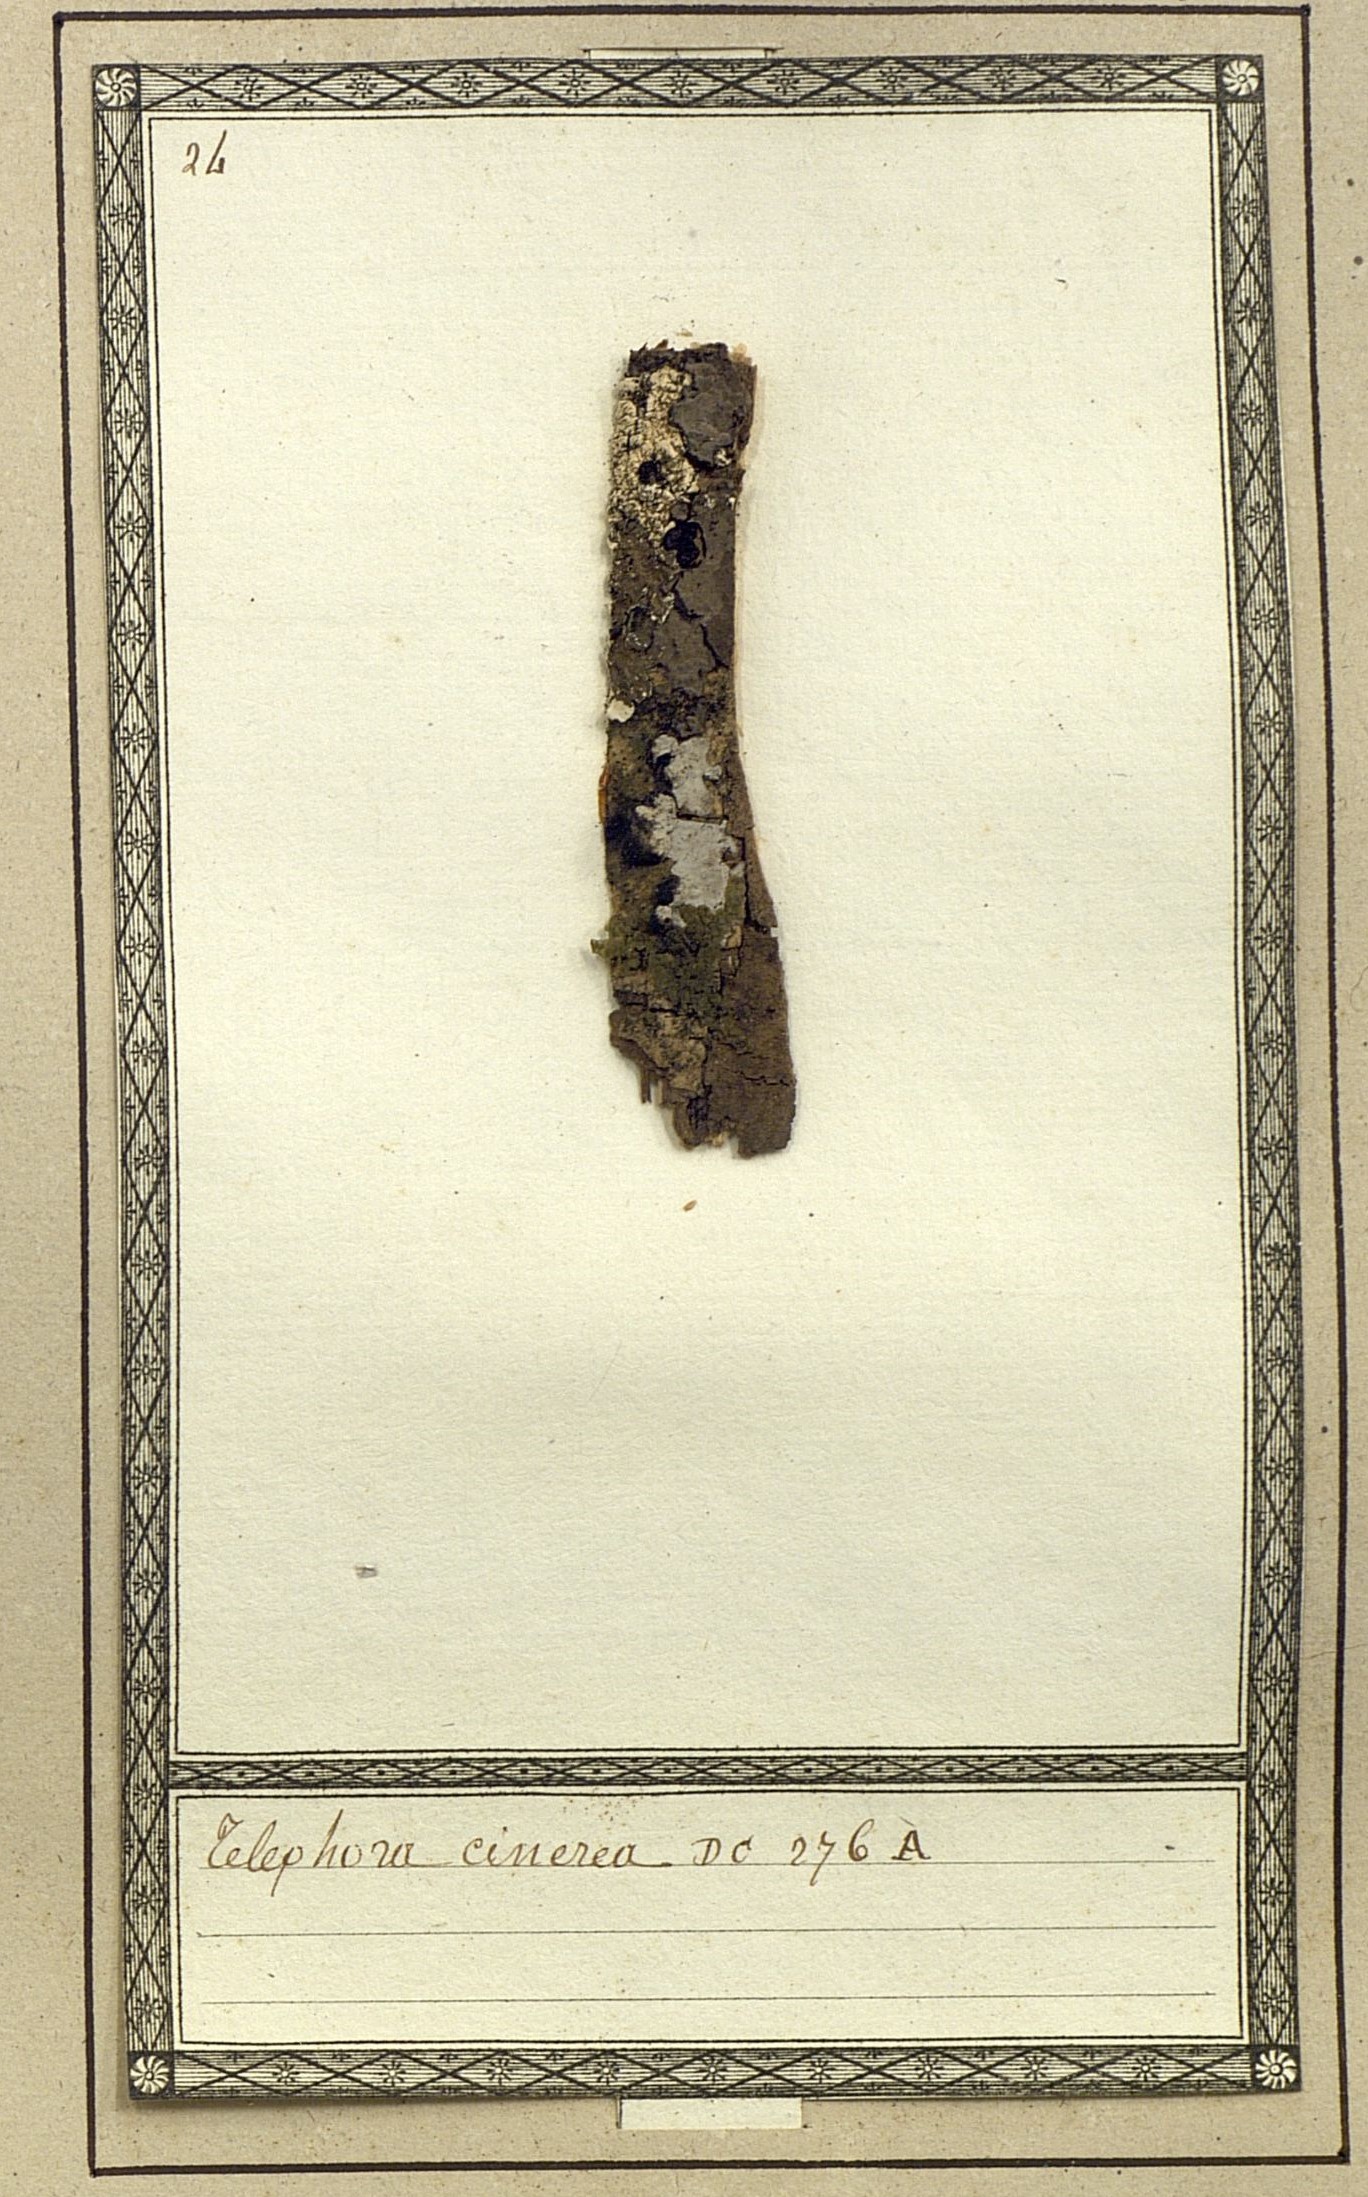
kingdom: Fungi
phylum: Basidiomycota
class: Agaricomycetes
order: Thelephorales
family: Thelephoraceae
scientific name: Thelephoraceae
